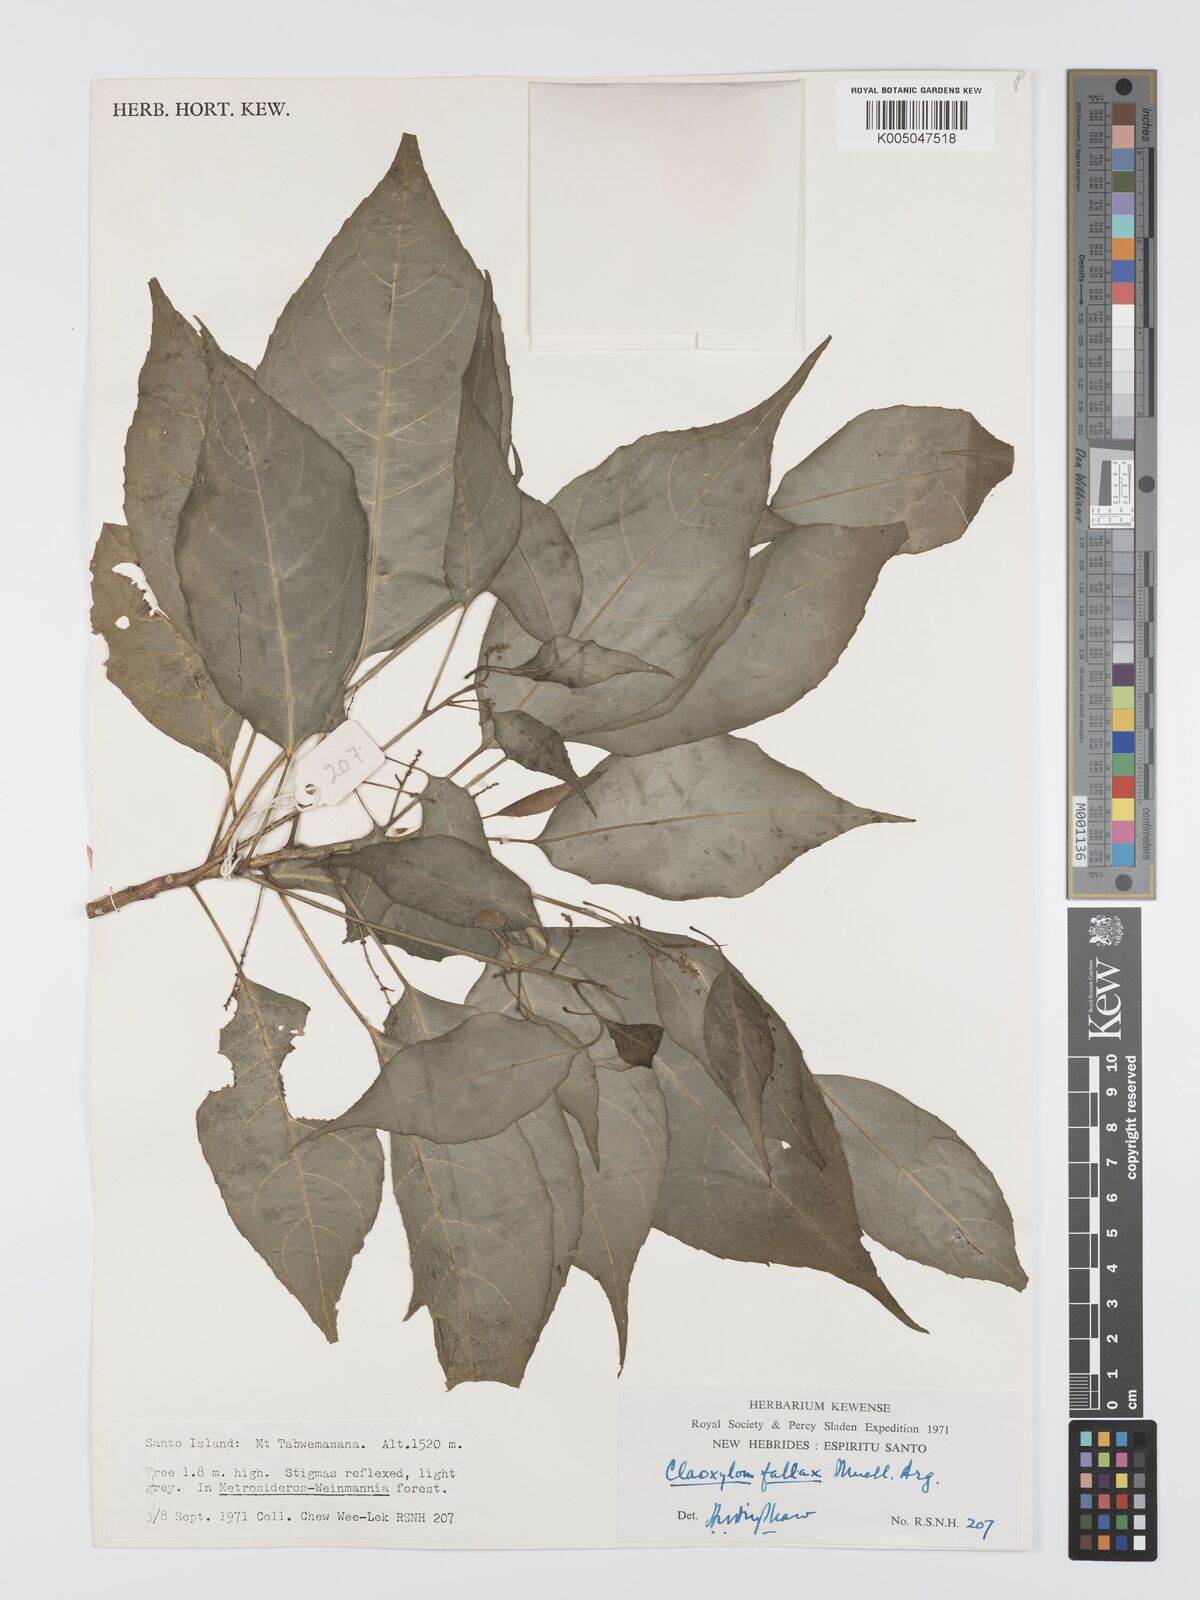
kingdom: Plantae
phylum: Tracheophyta
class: Magnoliopsida
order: Malpighiales
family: Euphorbiaceae
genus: Claoxylon
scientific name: Claoxylon fallax
